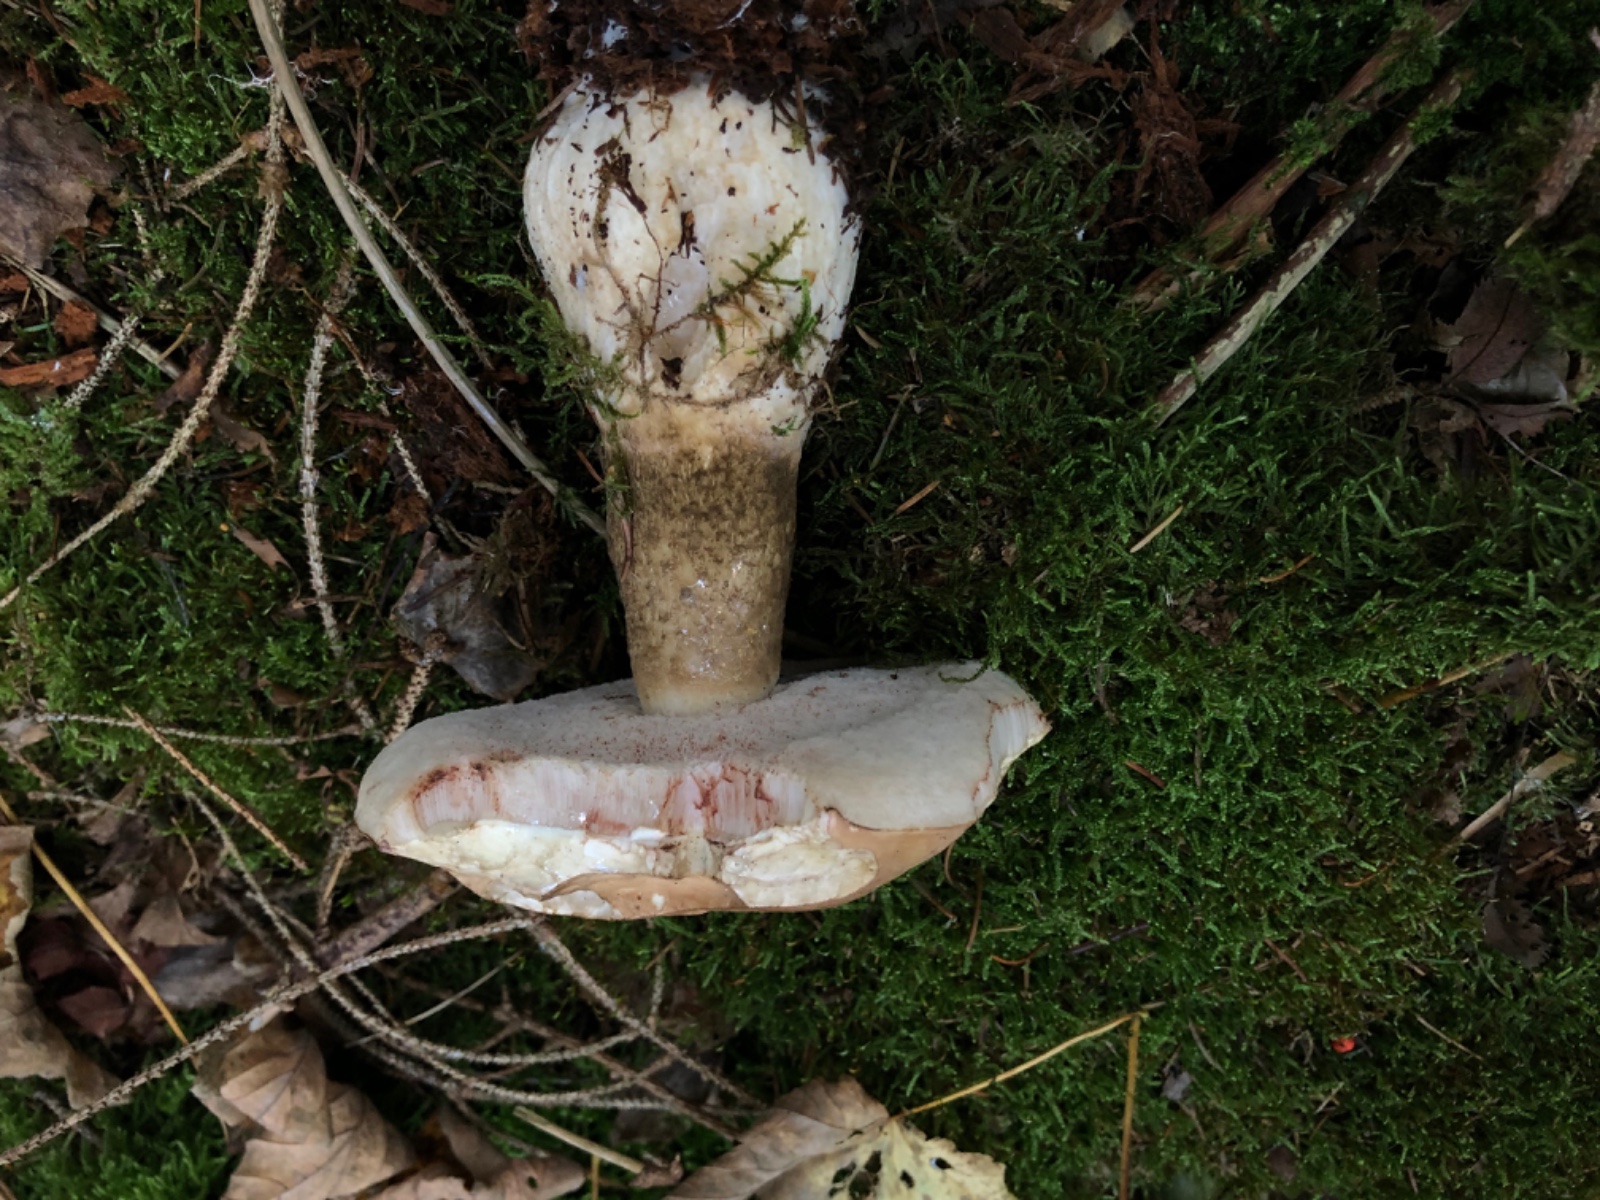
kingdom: Fungi
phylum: Basidiomycota
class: Agaricomycetes
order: Boletales
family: Boletaceae
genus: Tylopilus
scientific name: Tylopilus felleus
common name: galderørhat
